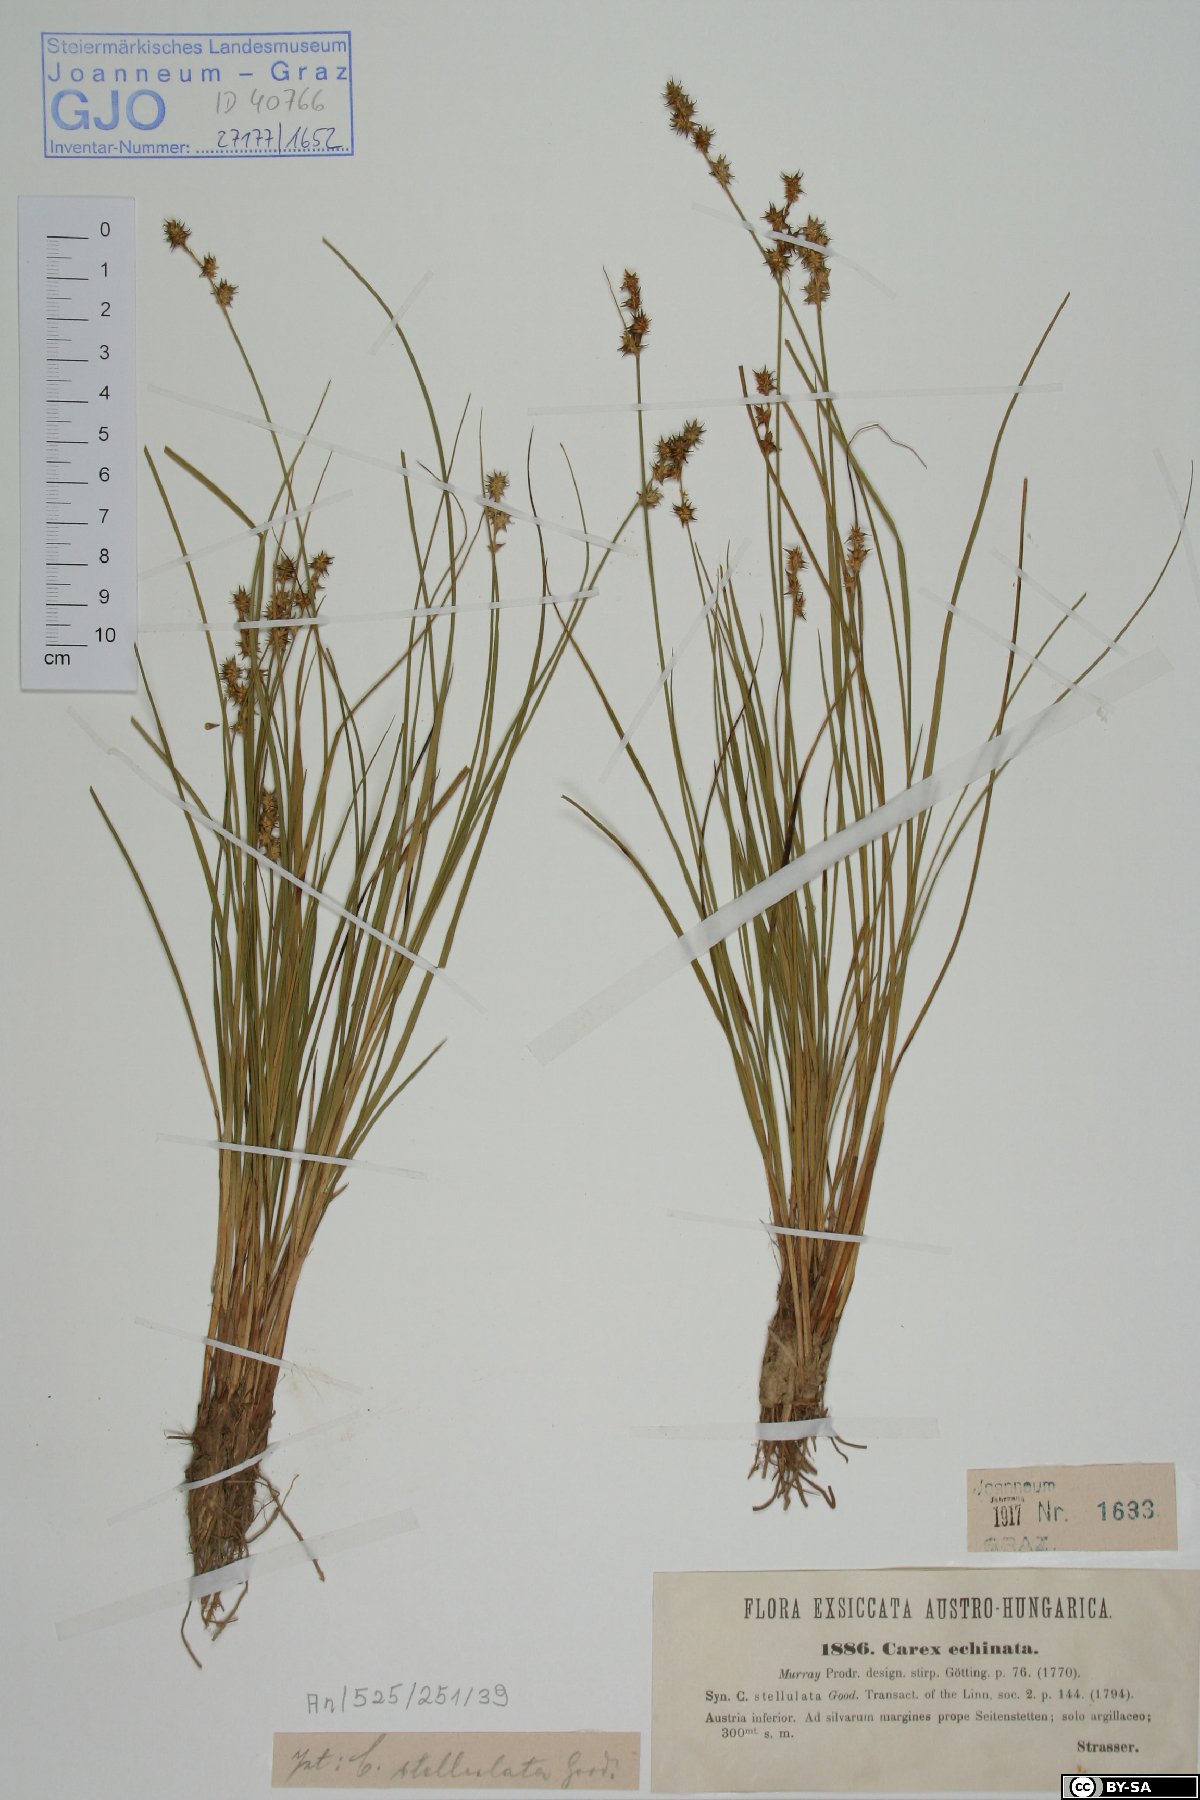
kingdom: Plantae
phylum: Tracheophyta
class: Liliopsida
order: Poales
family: Cyperaceae
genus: Carex
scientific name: Carex echinata
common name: Star sedge
